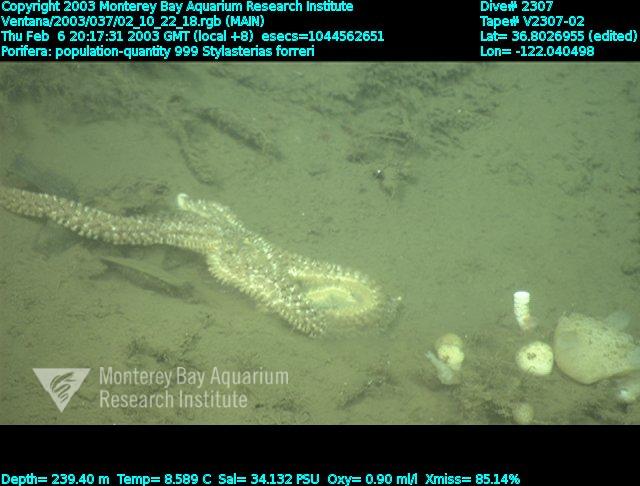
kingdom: Animalia
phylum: Porifera
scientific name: Porifera
